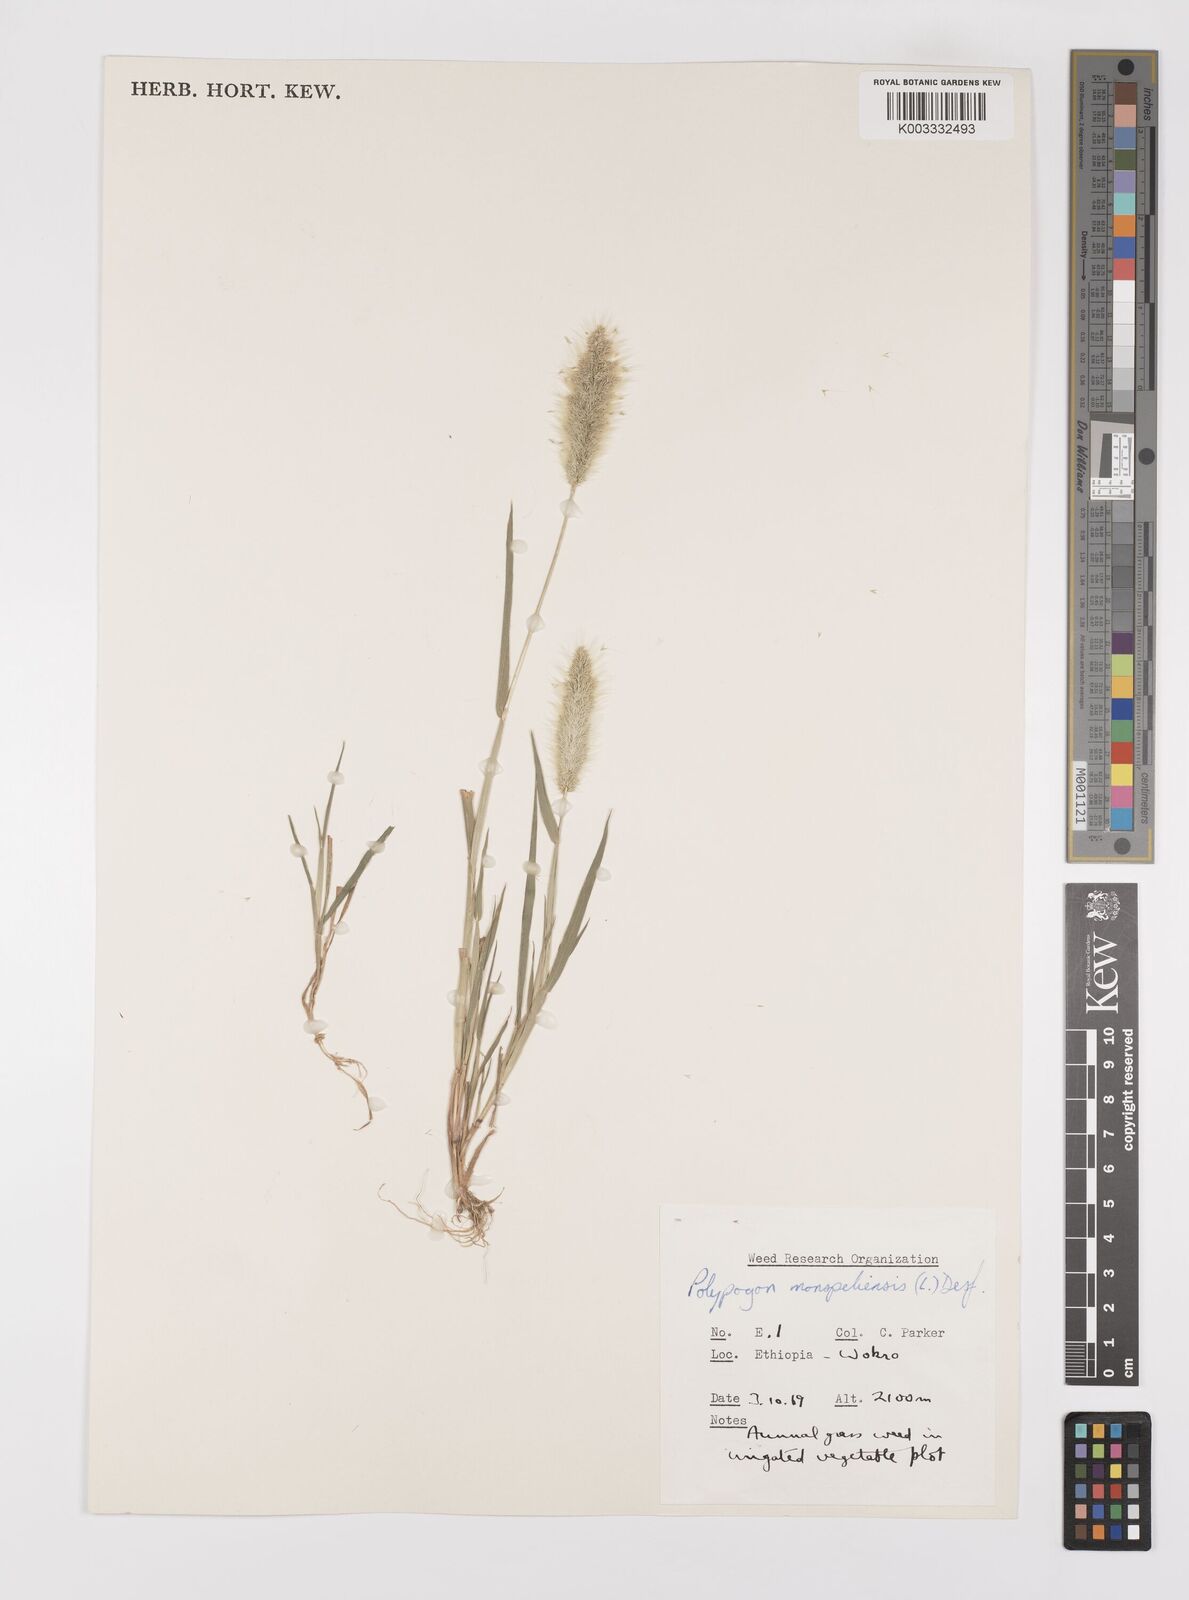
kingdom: Plantae
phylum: Tracheophyta
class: Liliopsida
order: Poales
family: Poaceae
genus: Polypogon
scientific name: Polypogon monspeliensis
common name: Annual rabbitsfoot grass
